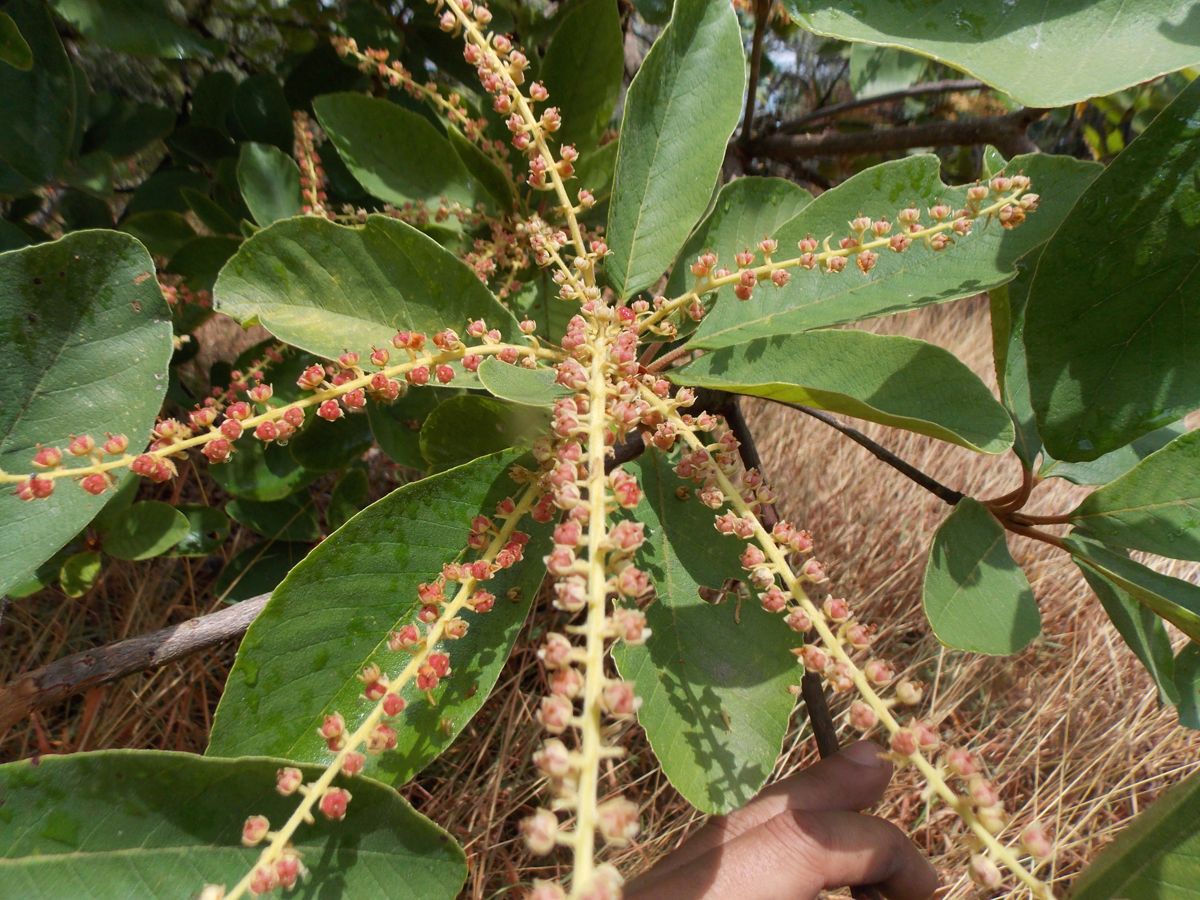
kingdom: Plantae
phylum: Tracheophyta
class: Magnoliopsida
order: Ericales
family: Clethraceae
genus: Clethra
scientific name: Clethra mexicana
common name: Nance macho
